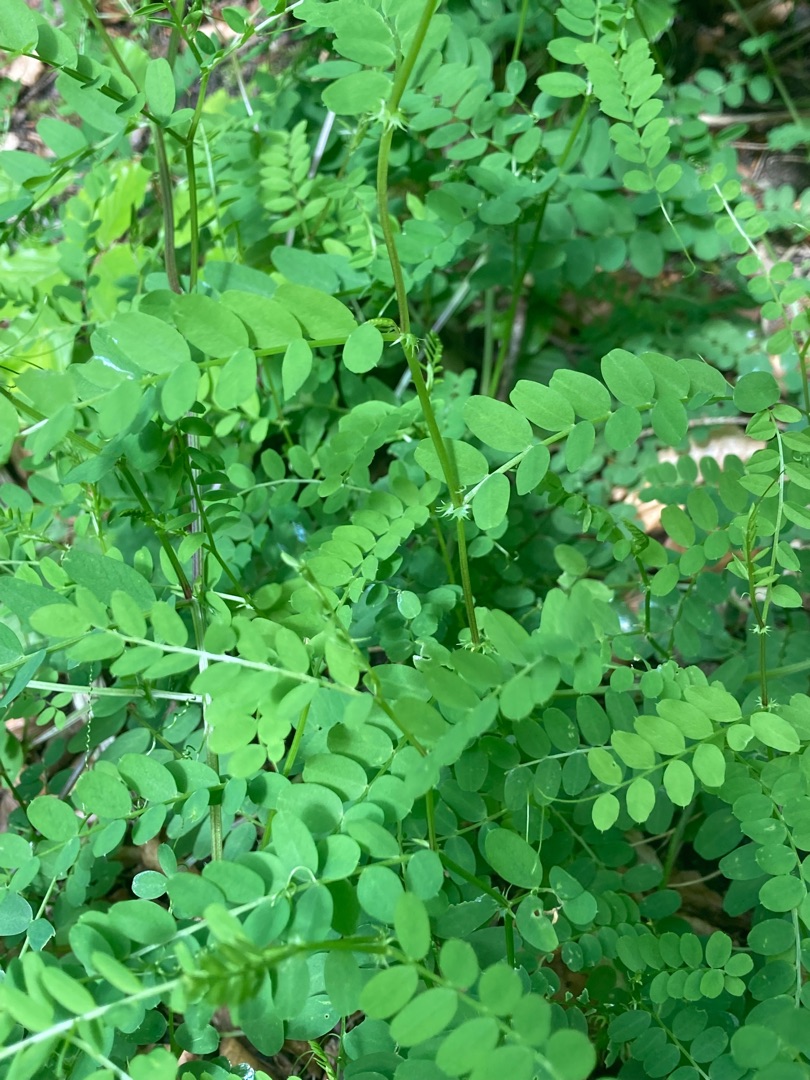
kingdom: Plantae
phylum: Tracheophyta
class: Magnoliopsida
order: Fabales
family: Fabaceae
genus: Vicia
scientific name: Vicia sylvatica
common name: Skov-vikke
